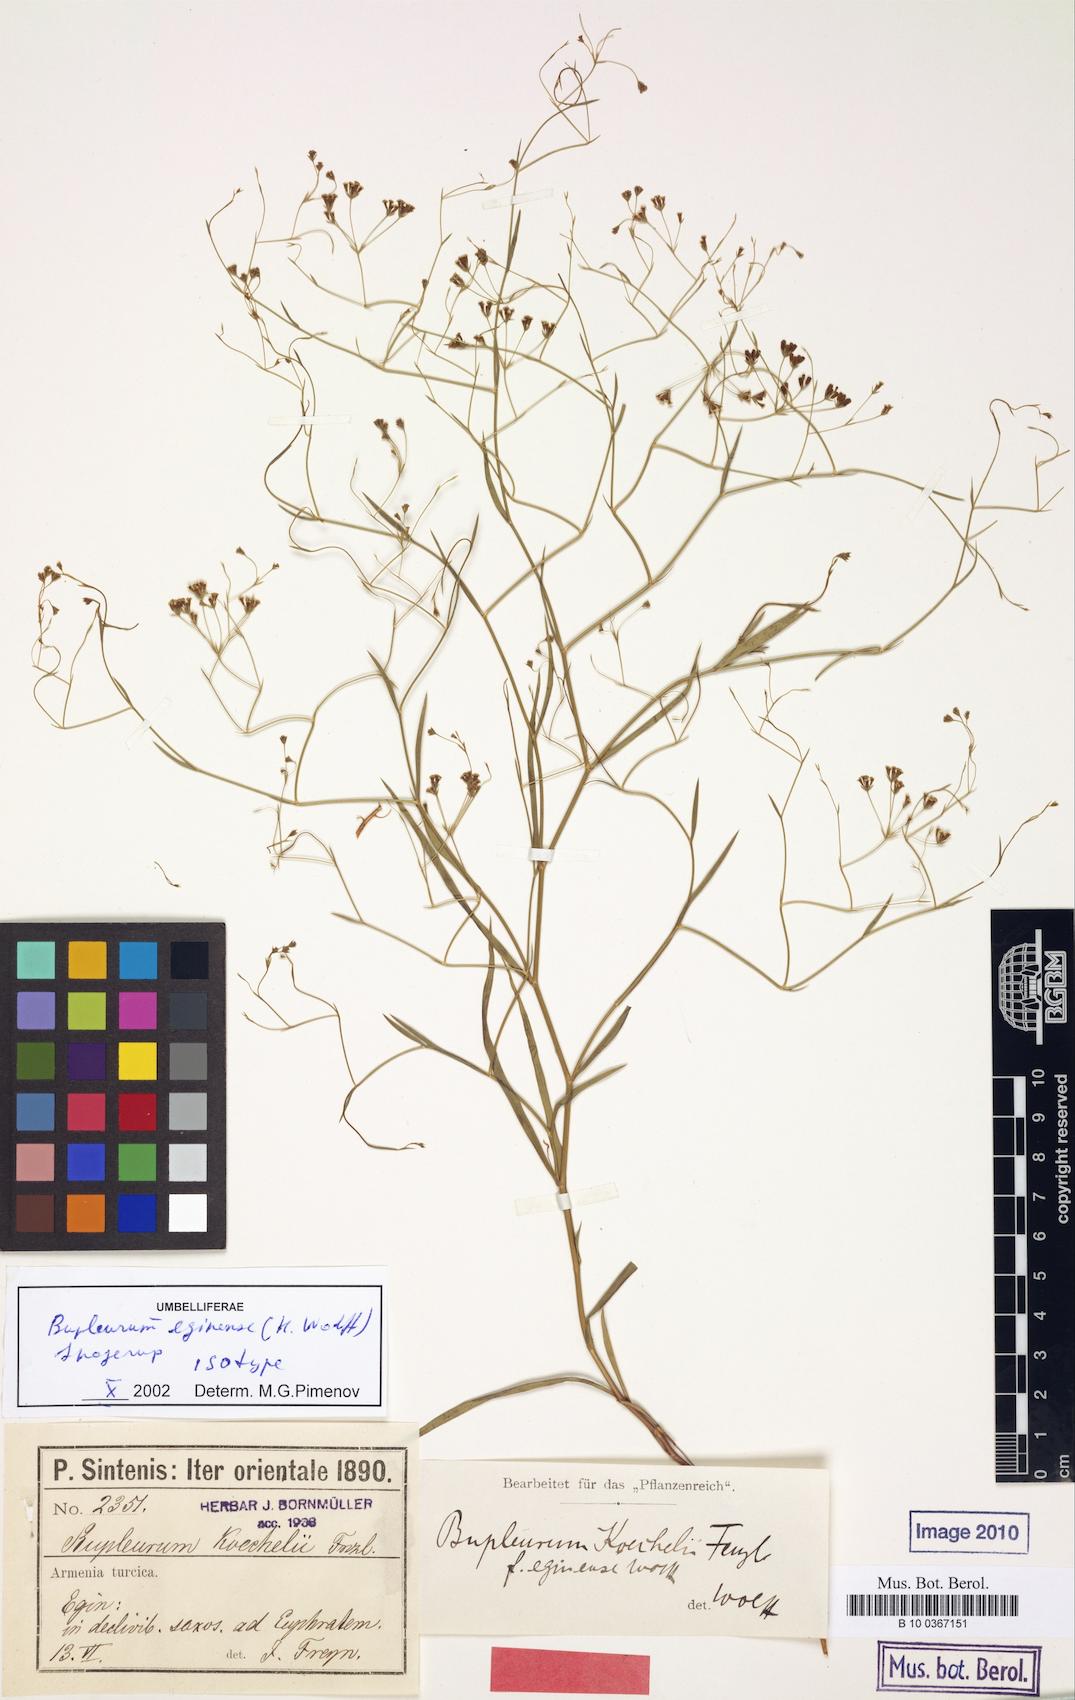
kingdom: Plantae
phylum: Tracheophyta
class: Magnoliopsida
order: Apiales
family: Apiaceae
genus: Bupleurum
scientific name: Bupleurum eginense
